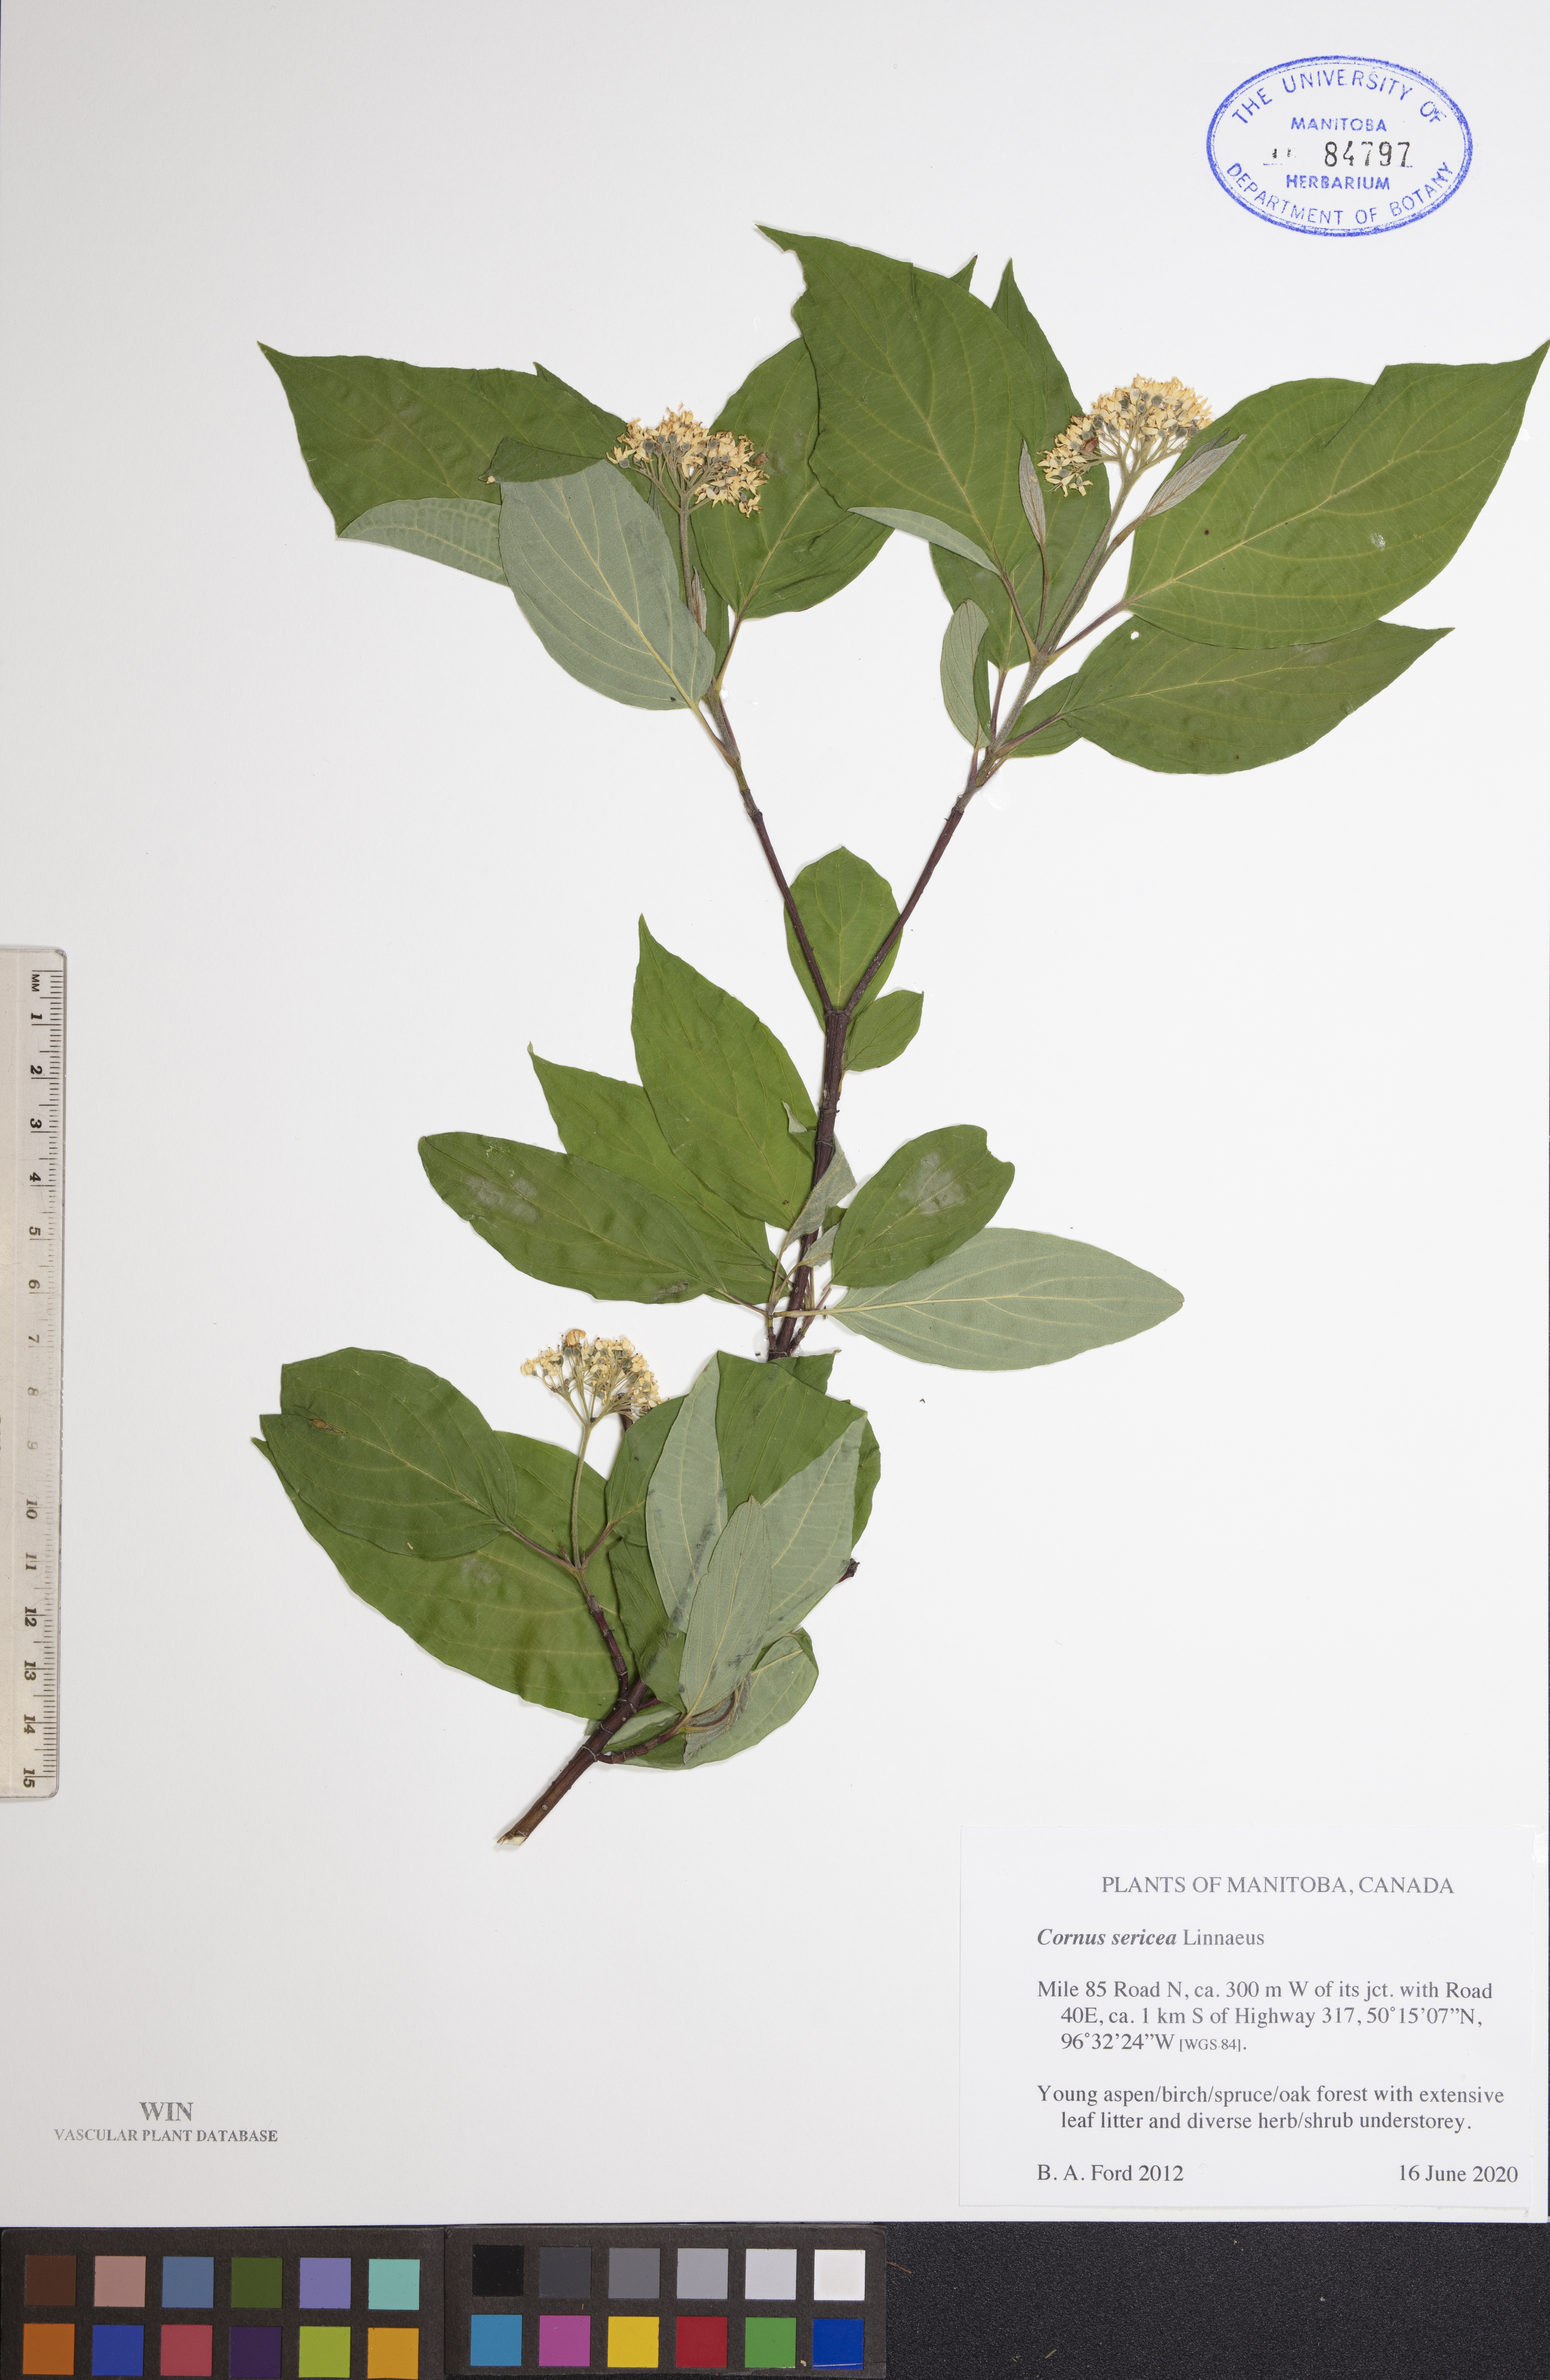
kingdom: Plantae
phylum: Tracheophyta
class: Magnoliopsida
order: Cornales
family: Cornaceae
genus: Cornus
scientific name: Cornus sericea
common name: Red-osier dogwood
